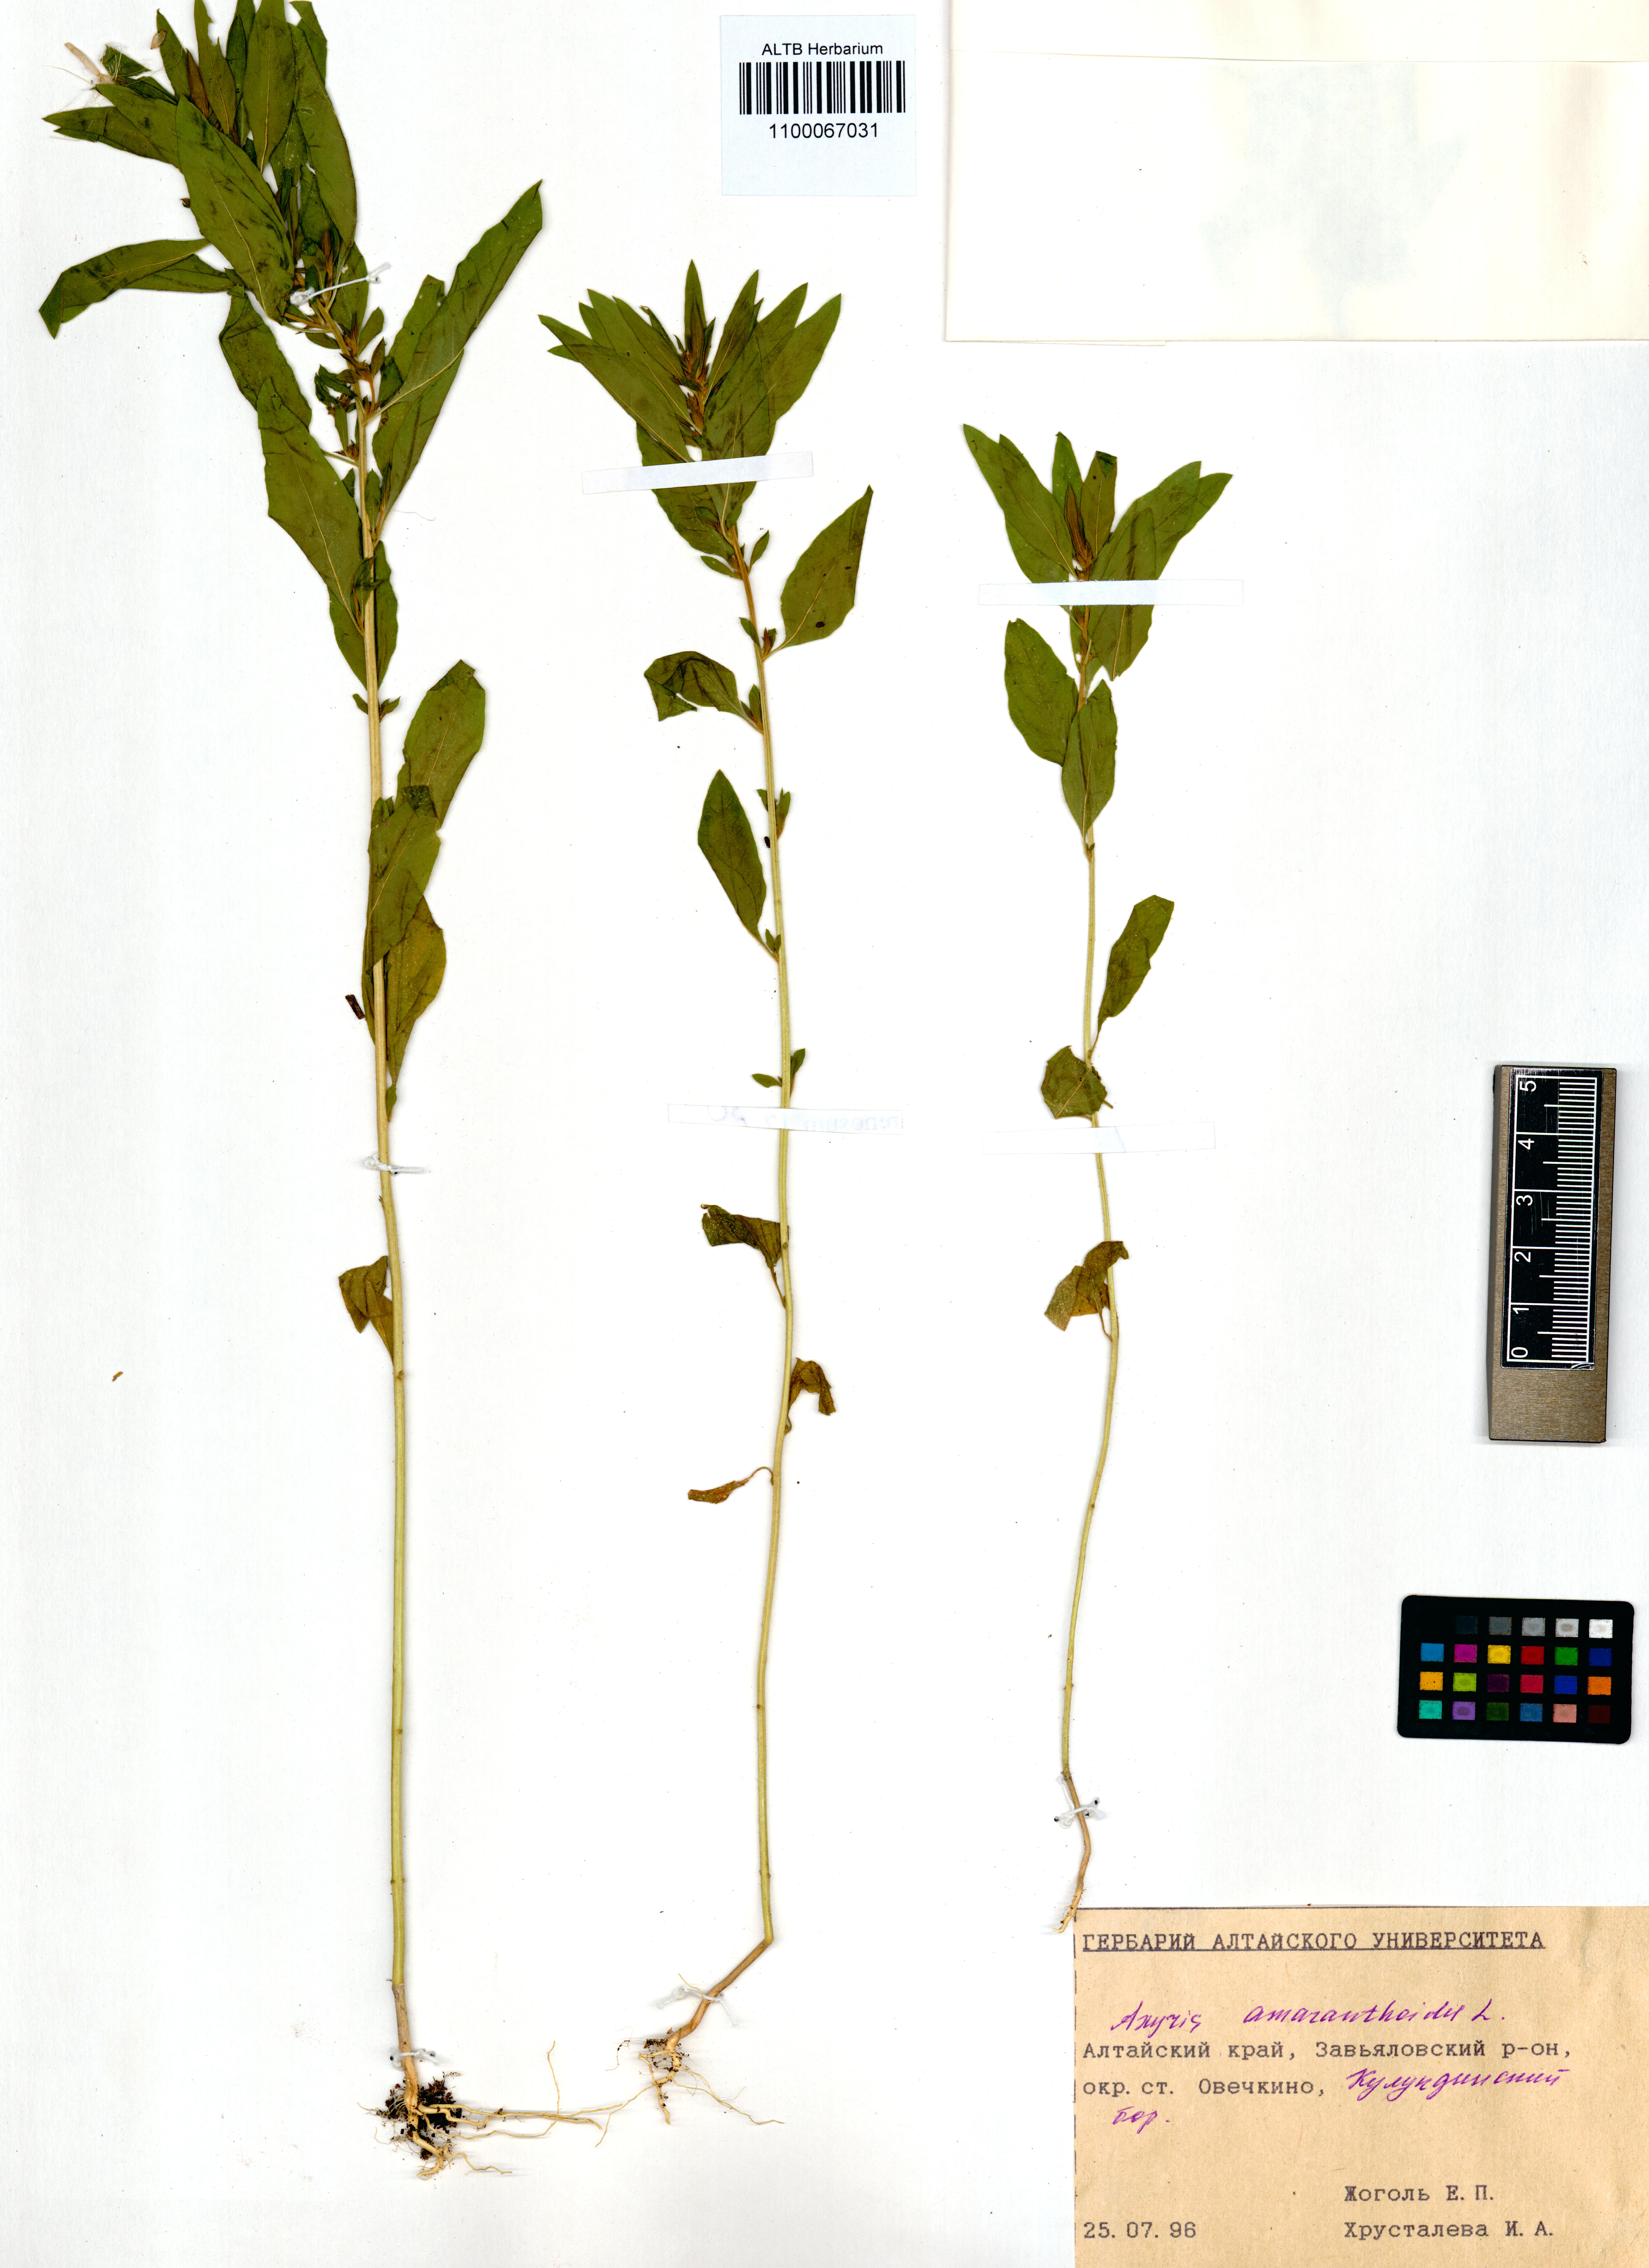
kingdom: Plantae
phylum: Tracheophyta
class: Magnoliopsida
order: Caryophyllales
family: Amaranthaceae
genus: Axyris
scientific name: Axyris amaranthoides
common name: Russian pigweed
